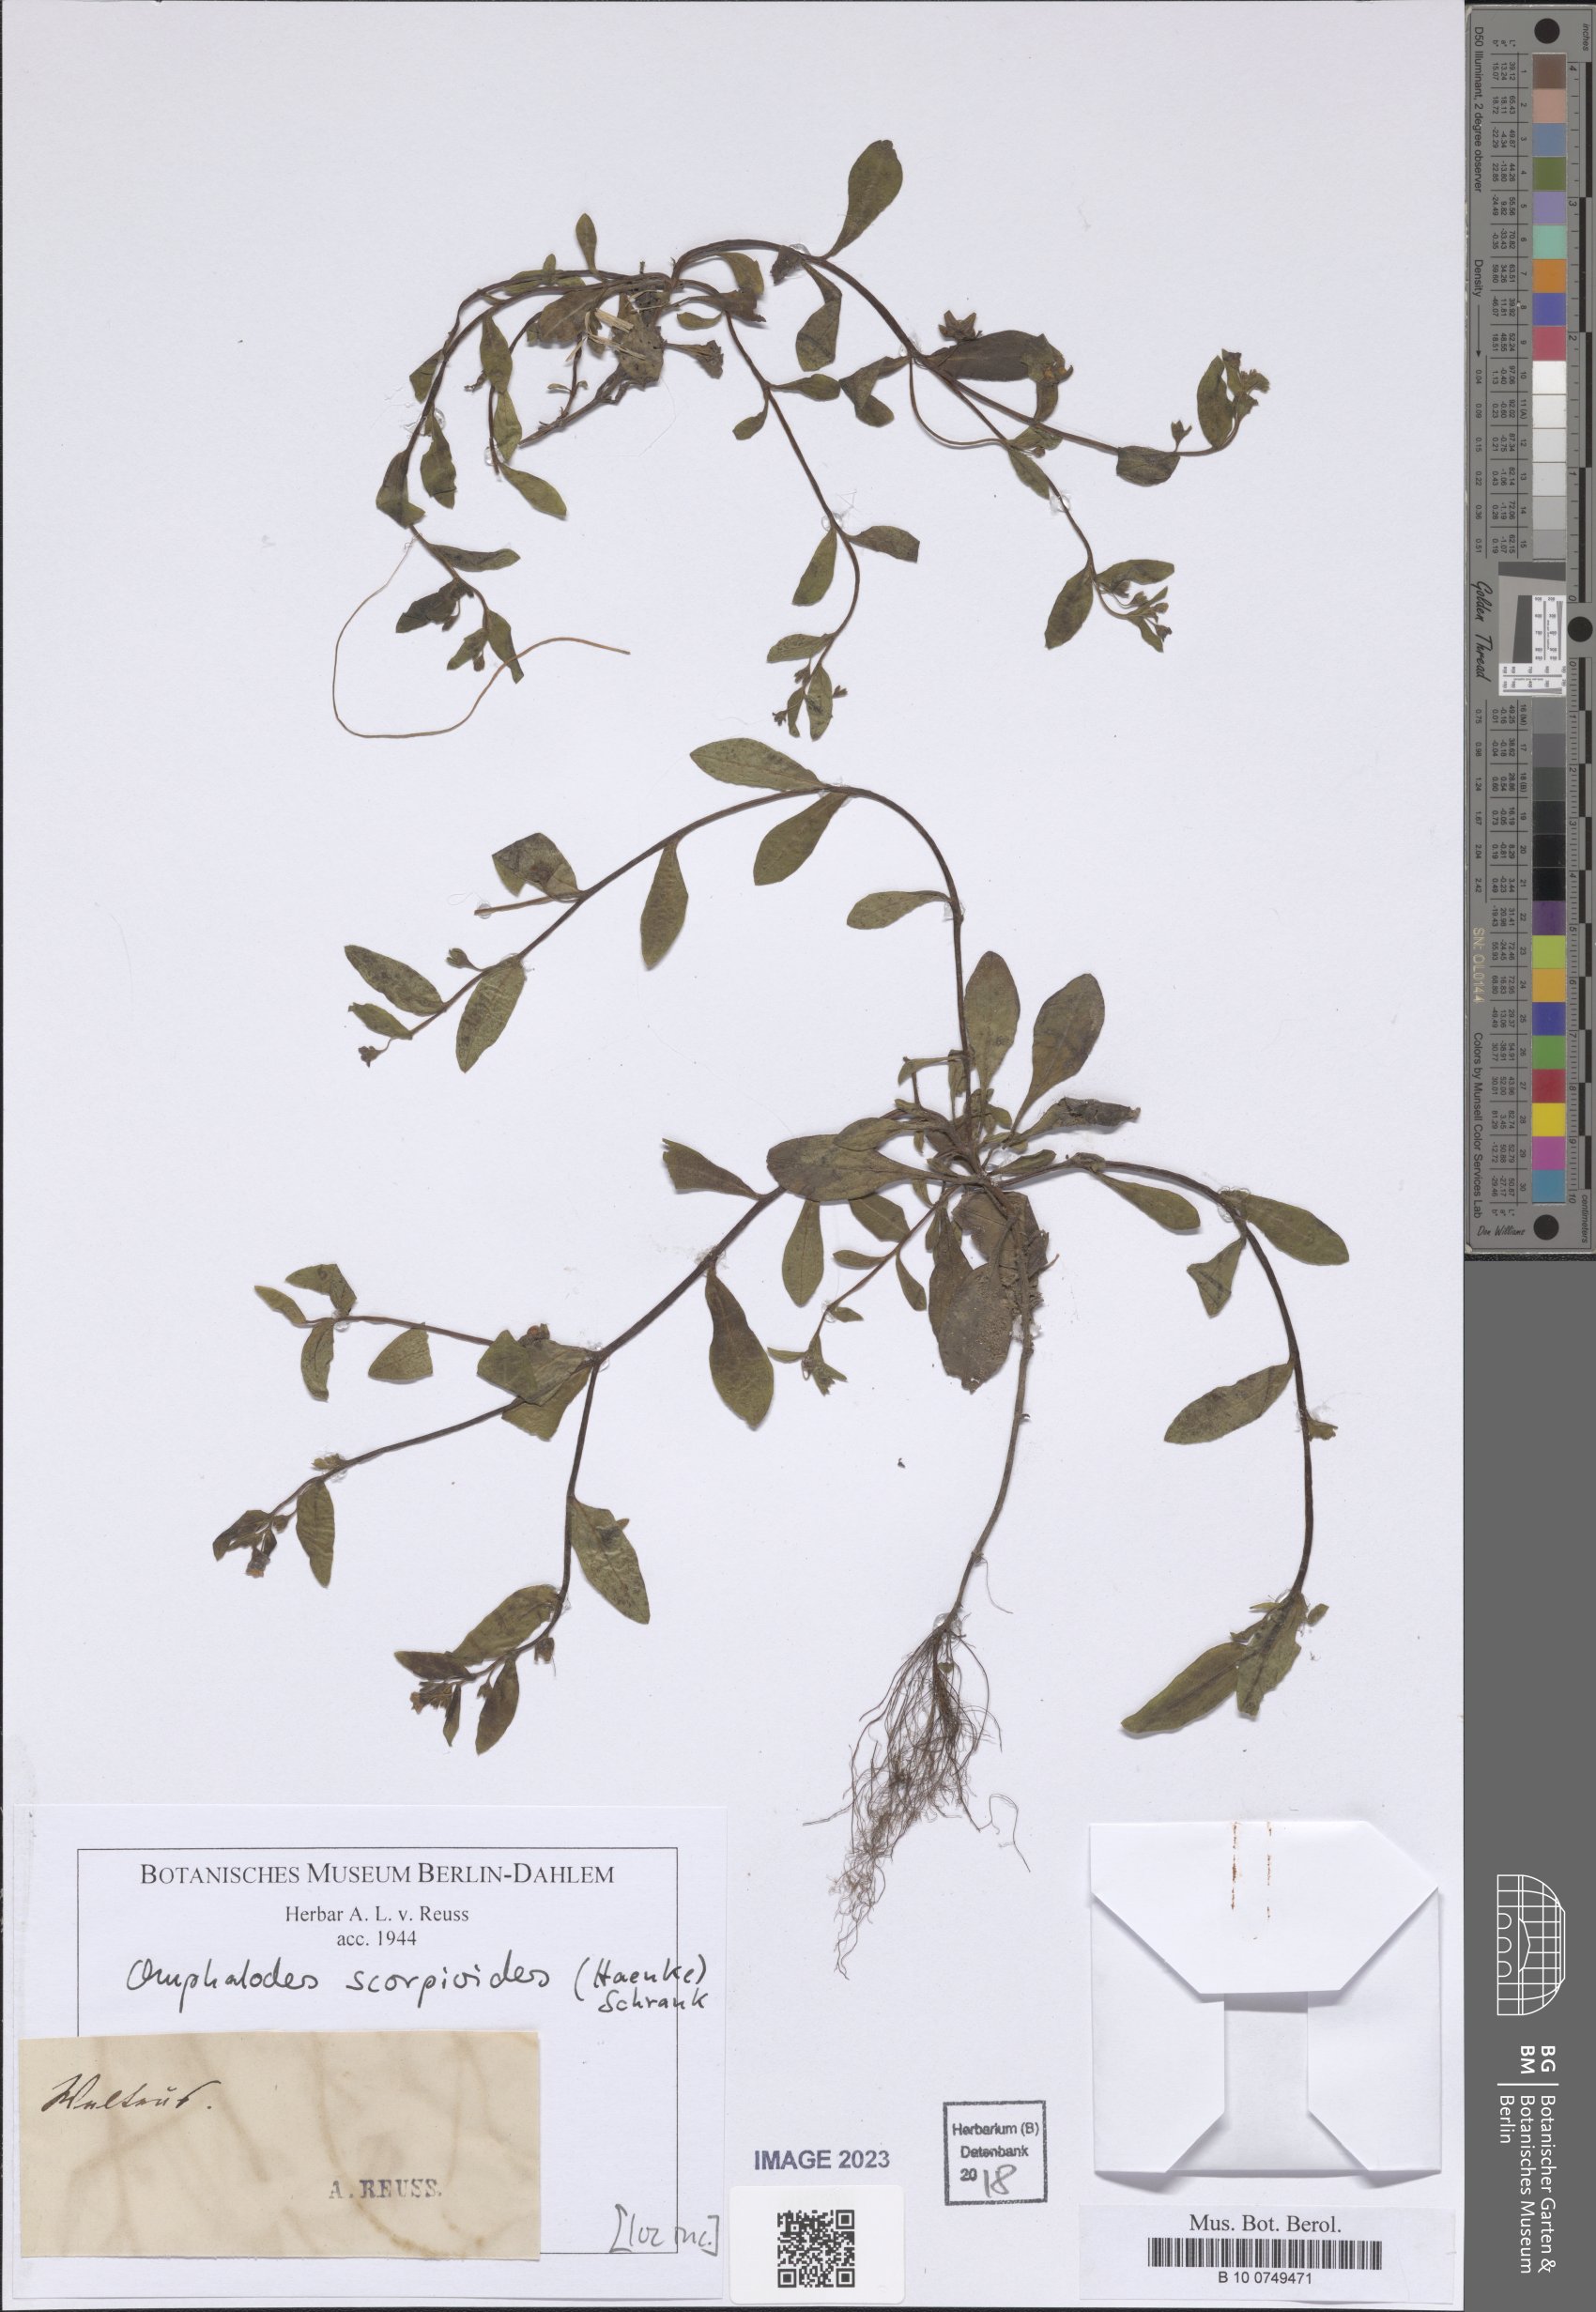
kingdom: Plantae
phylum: Tracheophyta
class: Magnoliopsida
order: Boraginales
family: Boraginaceae
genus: Memoremea
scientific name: Memoremea scorpioides
